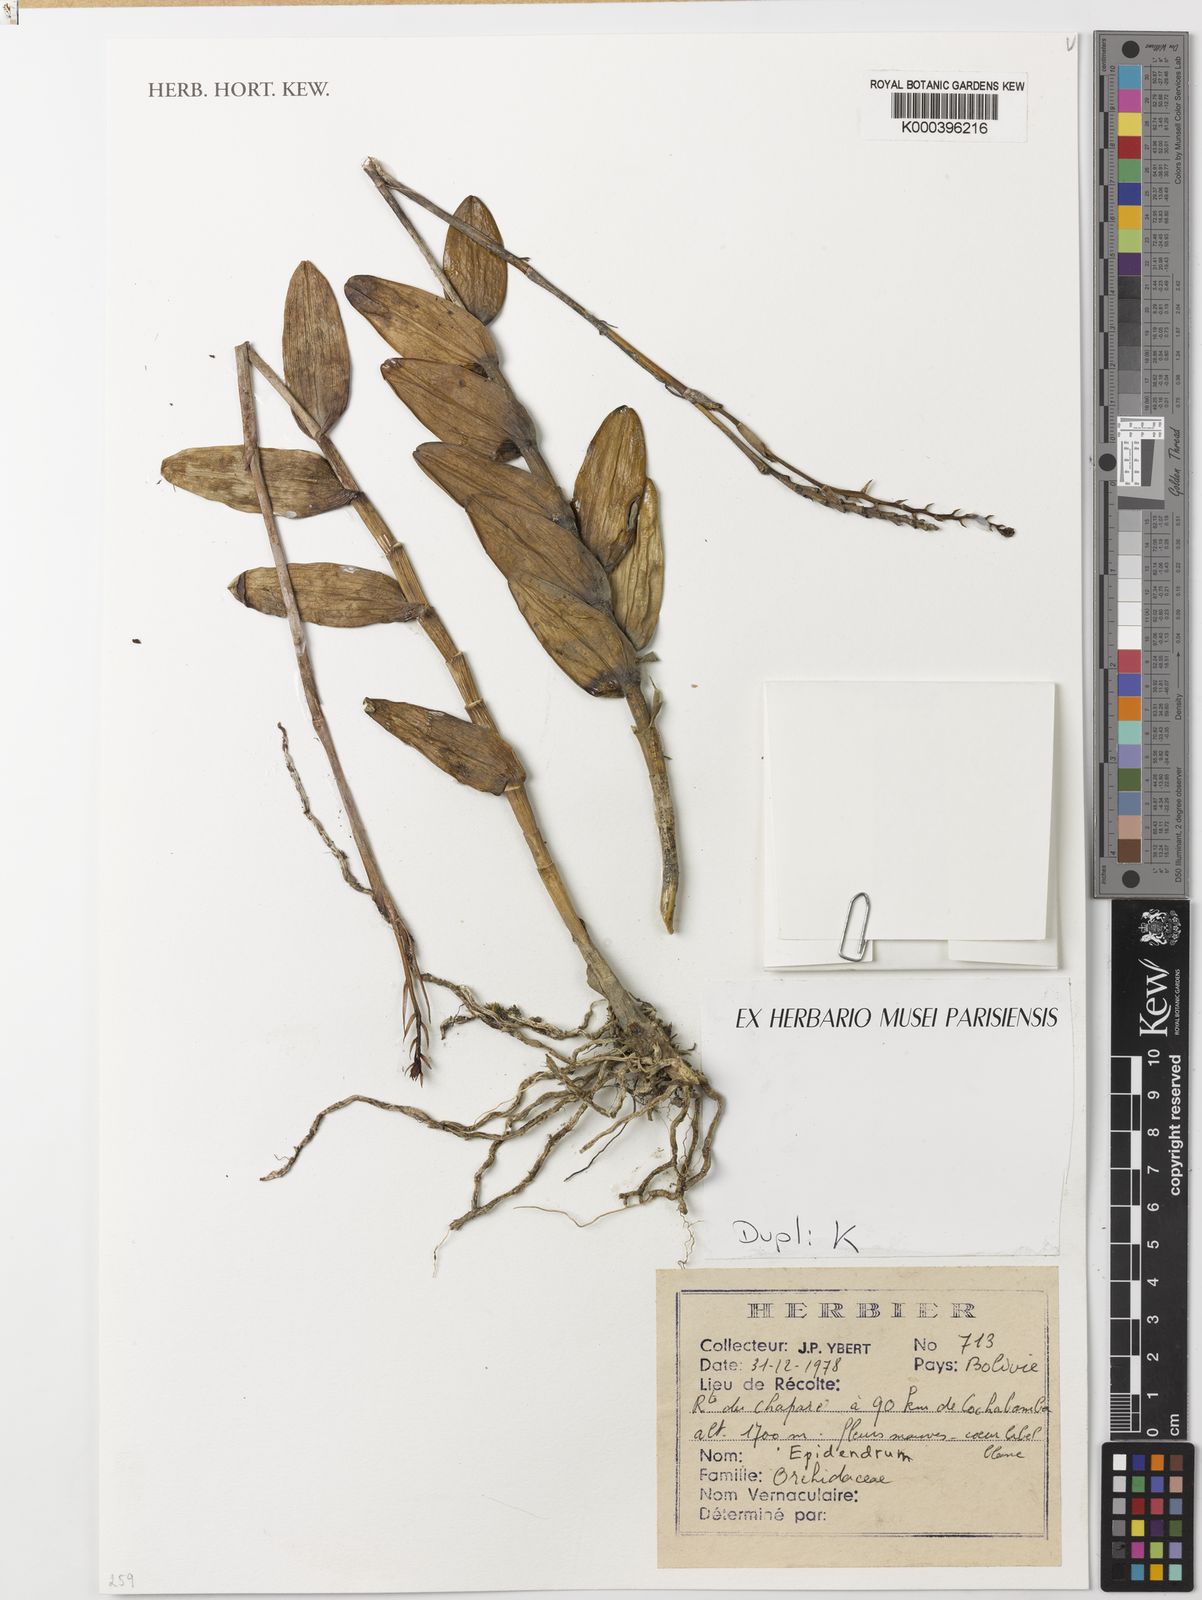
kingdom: Plantae
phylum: Tracheophyta
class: Liliopsida
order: Asparagales
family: Orchidaceae
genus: Epidendrum
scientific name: Epidendrum
